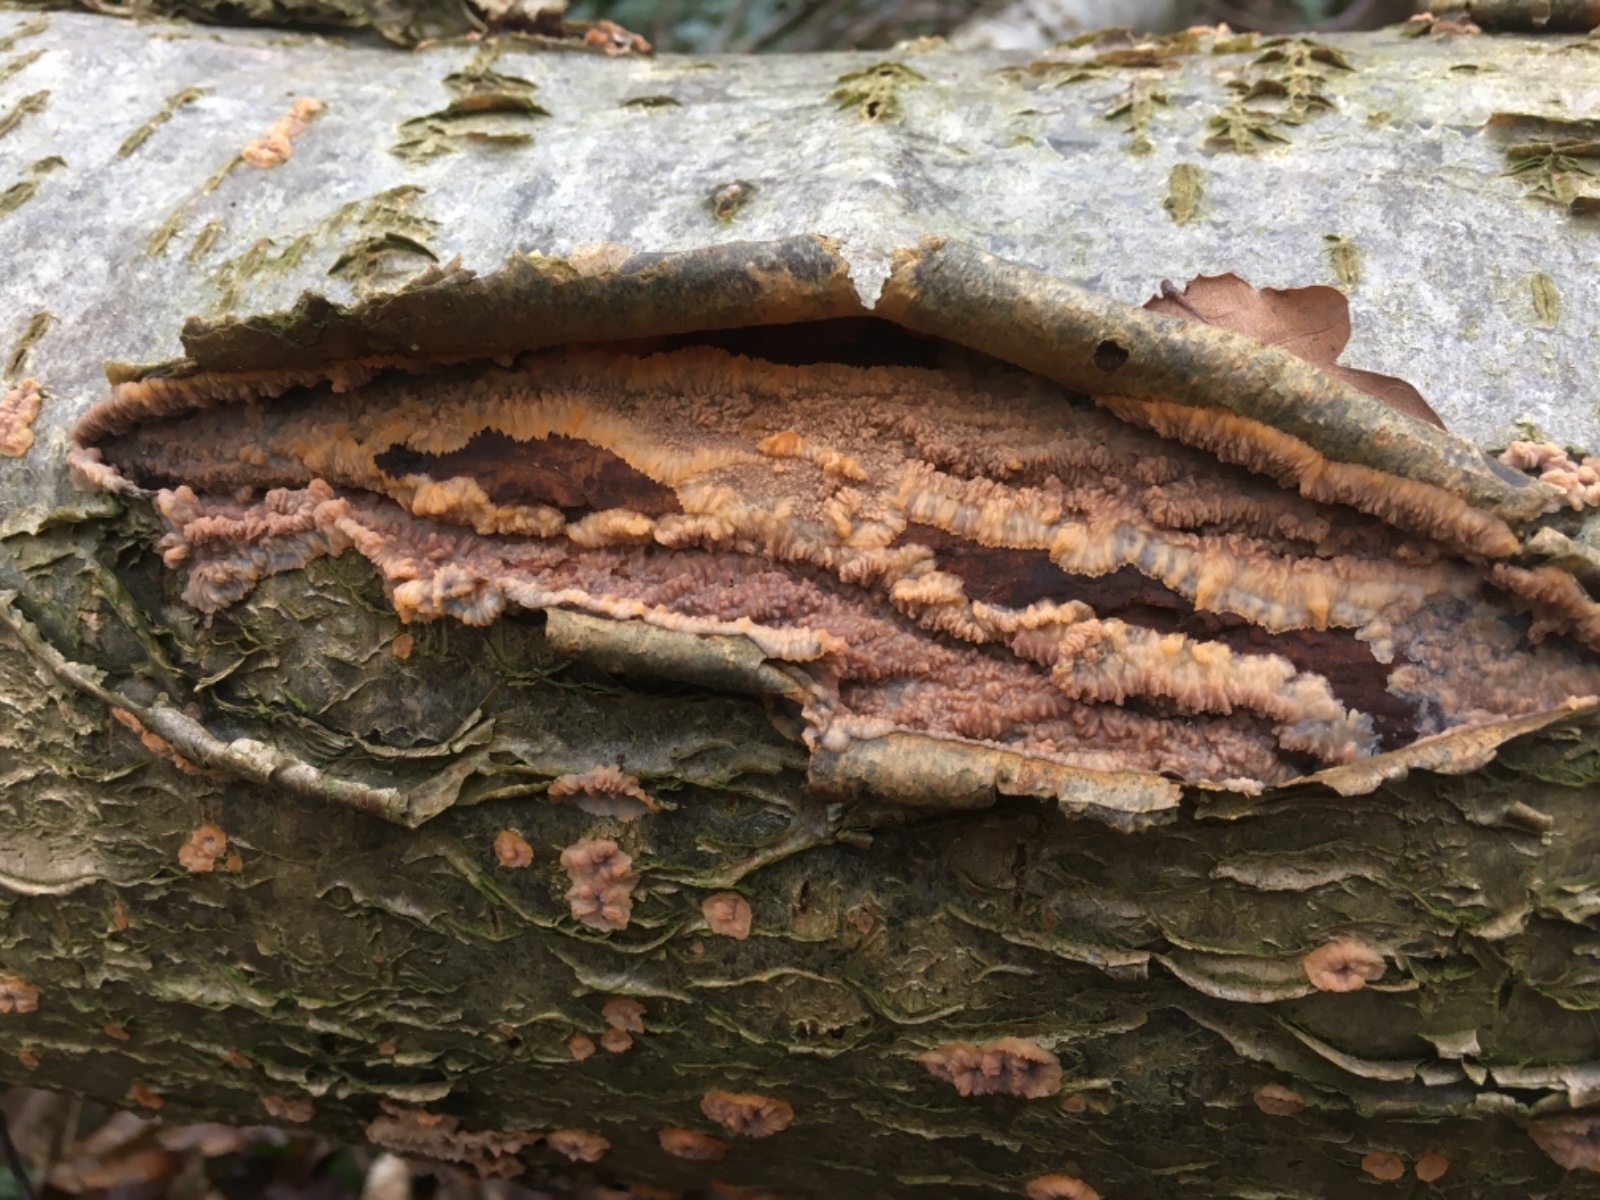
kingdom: Fungi
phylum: Basidiomycota
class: Agaricomycetes
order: Polyporales
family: Meruliaceae
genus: Phlebia
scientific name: Phlebia radiata
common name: stråle-åresvamp
